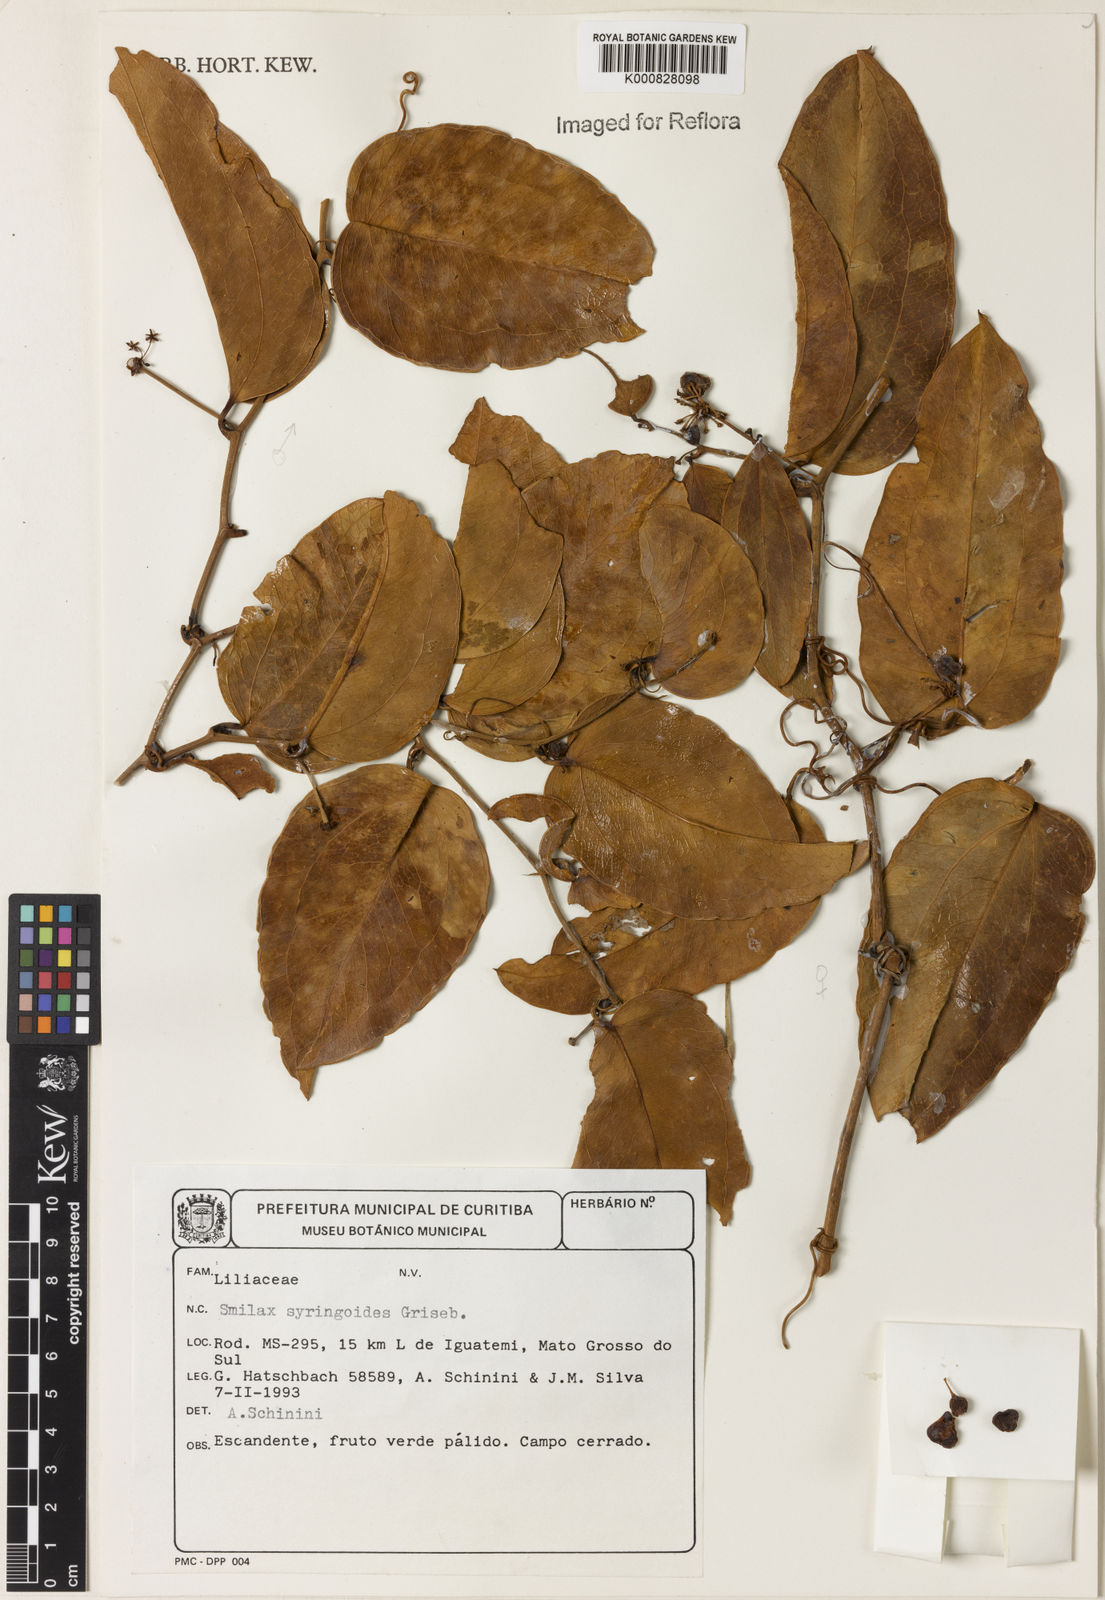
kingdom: Plantae
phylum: Tracheophyta
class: Liliopsida
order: Liliales
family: Smilacaceae
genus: Smilax
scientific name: Smilax fluminensis
